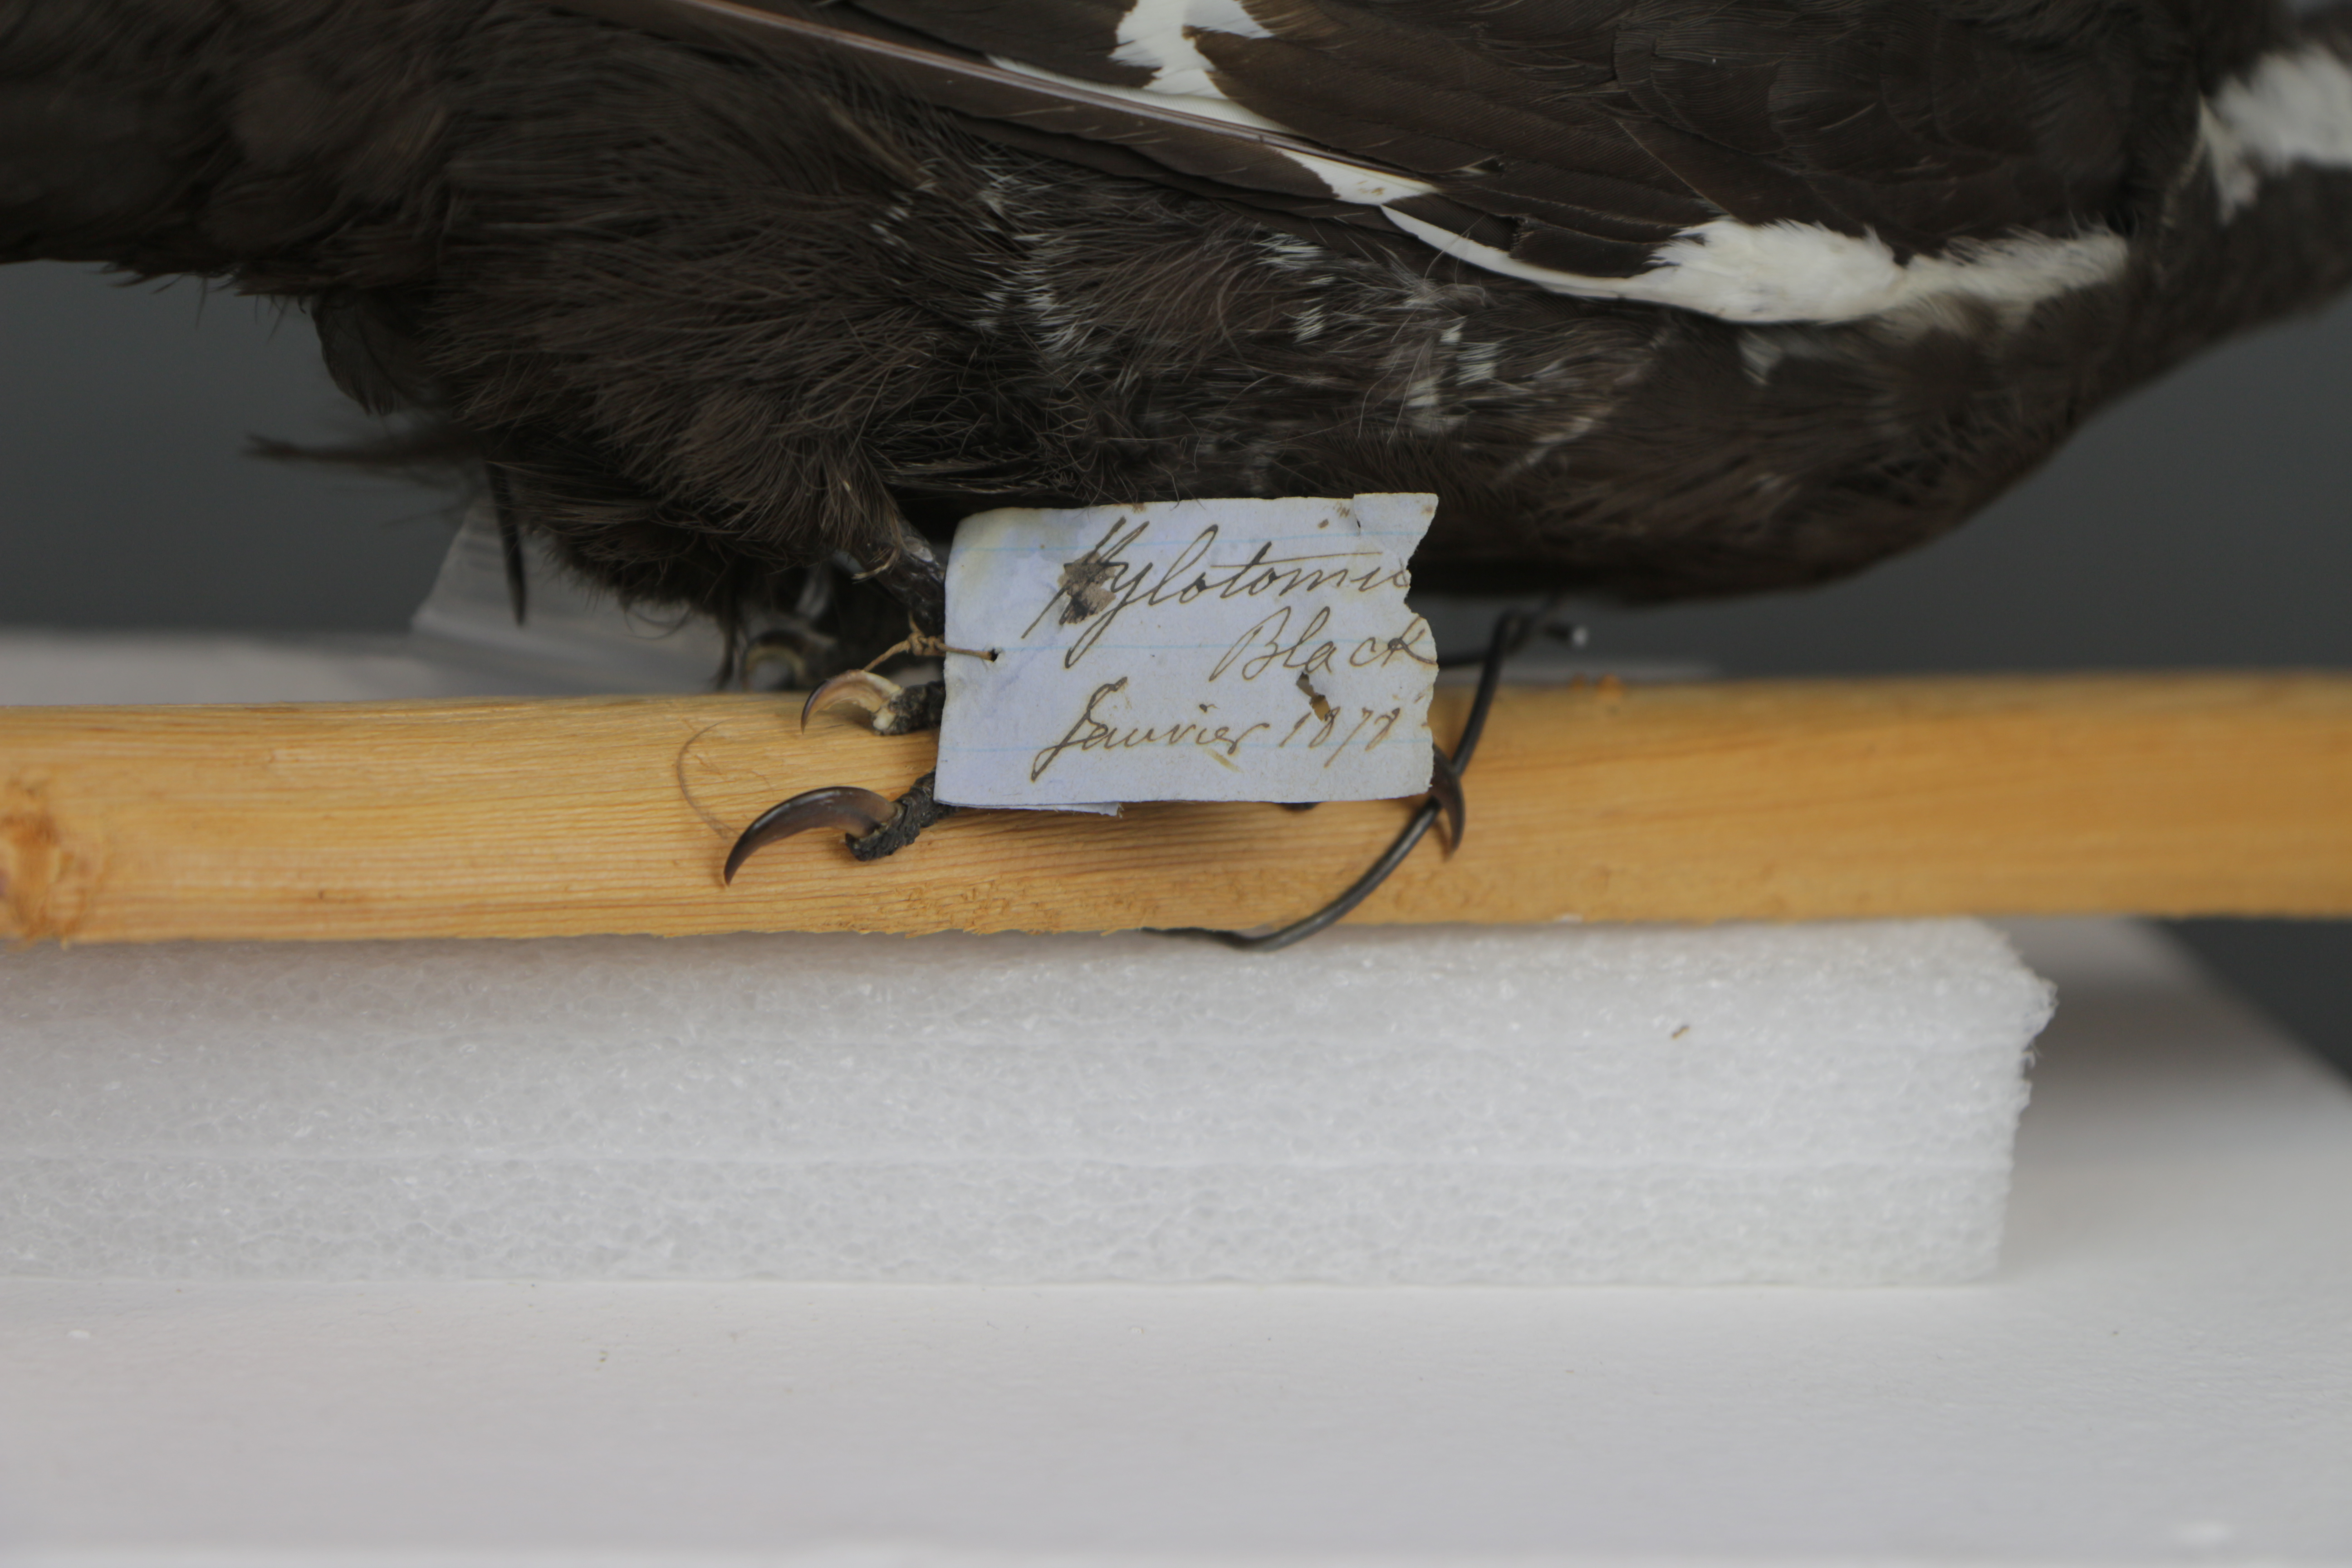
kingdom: Animalia
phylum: Chordata
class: Aves
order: Piciformes
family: Picidae
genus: Dryocopus
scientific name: Dryocopus pileatus
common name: Pileated woodpecker
